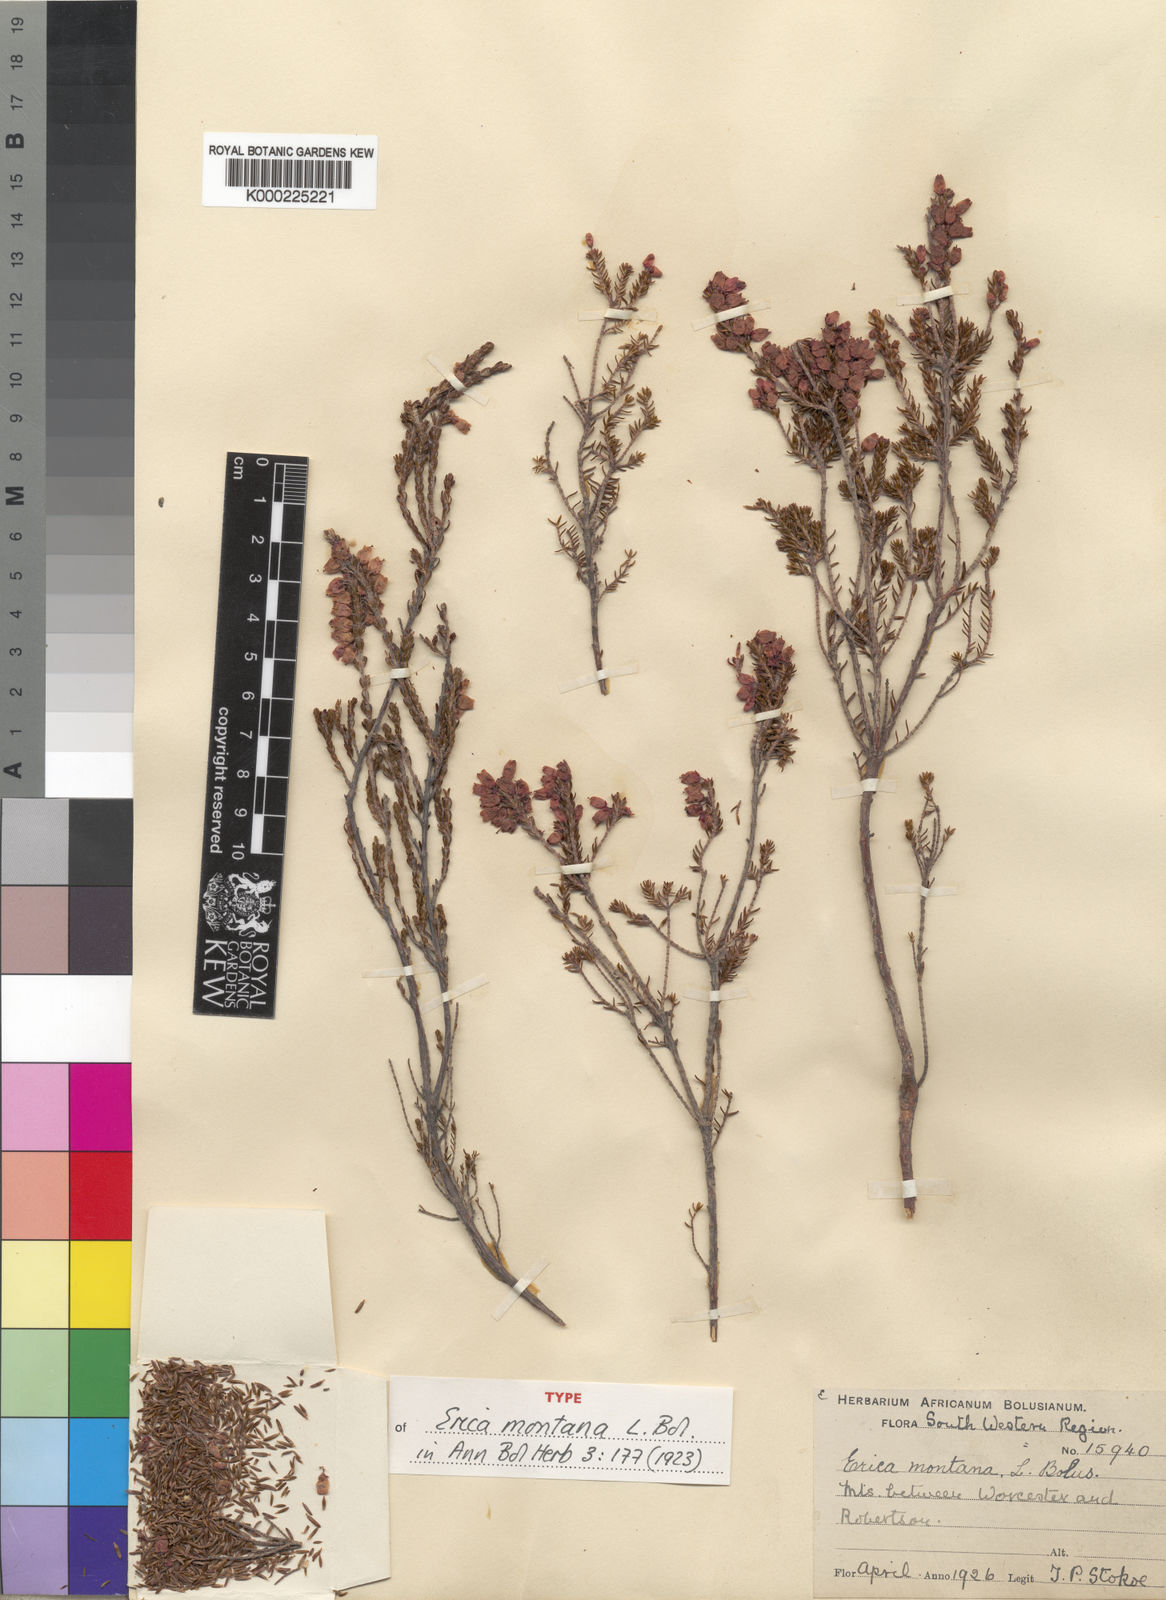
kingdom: Plantae
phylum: Tracheophyta
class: Magnoliopsida
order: Ericales
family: Ericaceae
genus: Erica
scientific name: Erica lateralis
